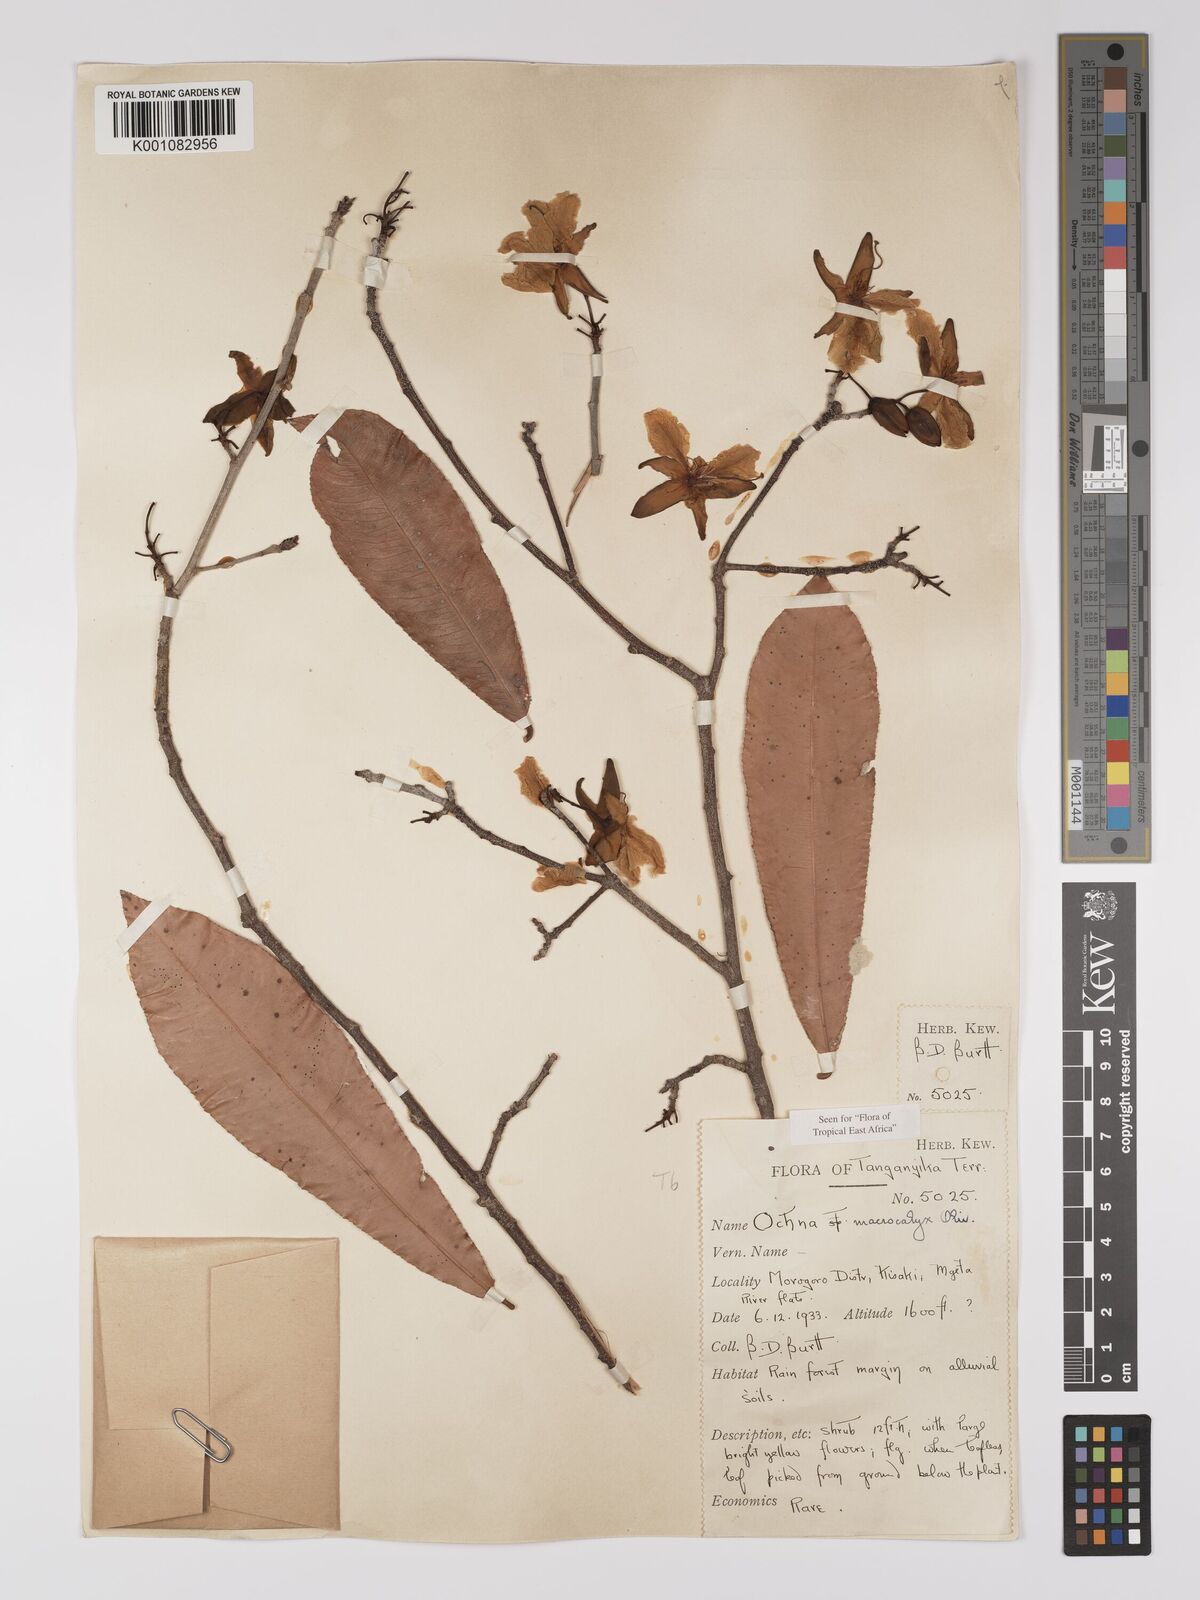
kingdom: Plantae
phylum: Tracheophyta
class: Magnoliopsida
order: Malpighiales
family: Ochnaceae
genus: Ochna
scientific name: Ochna macrocalyx
